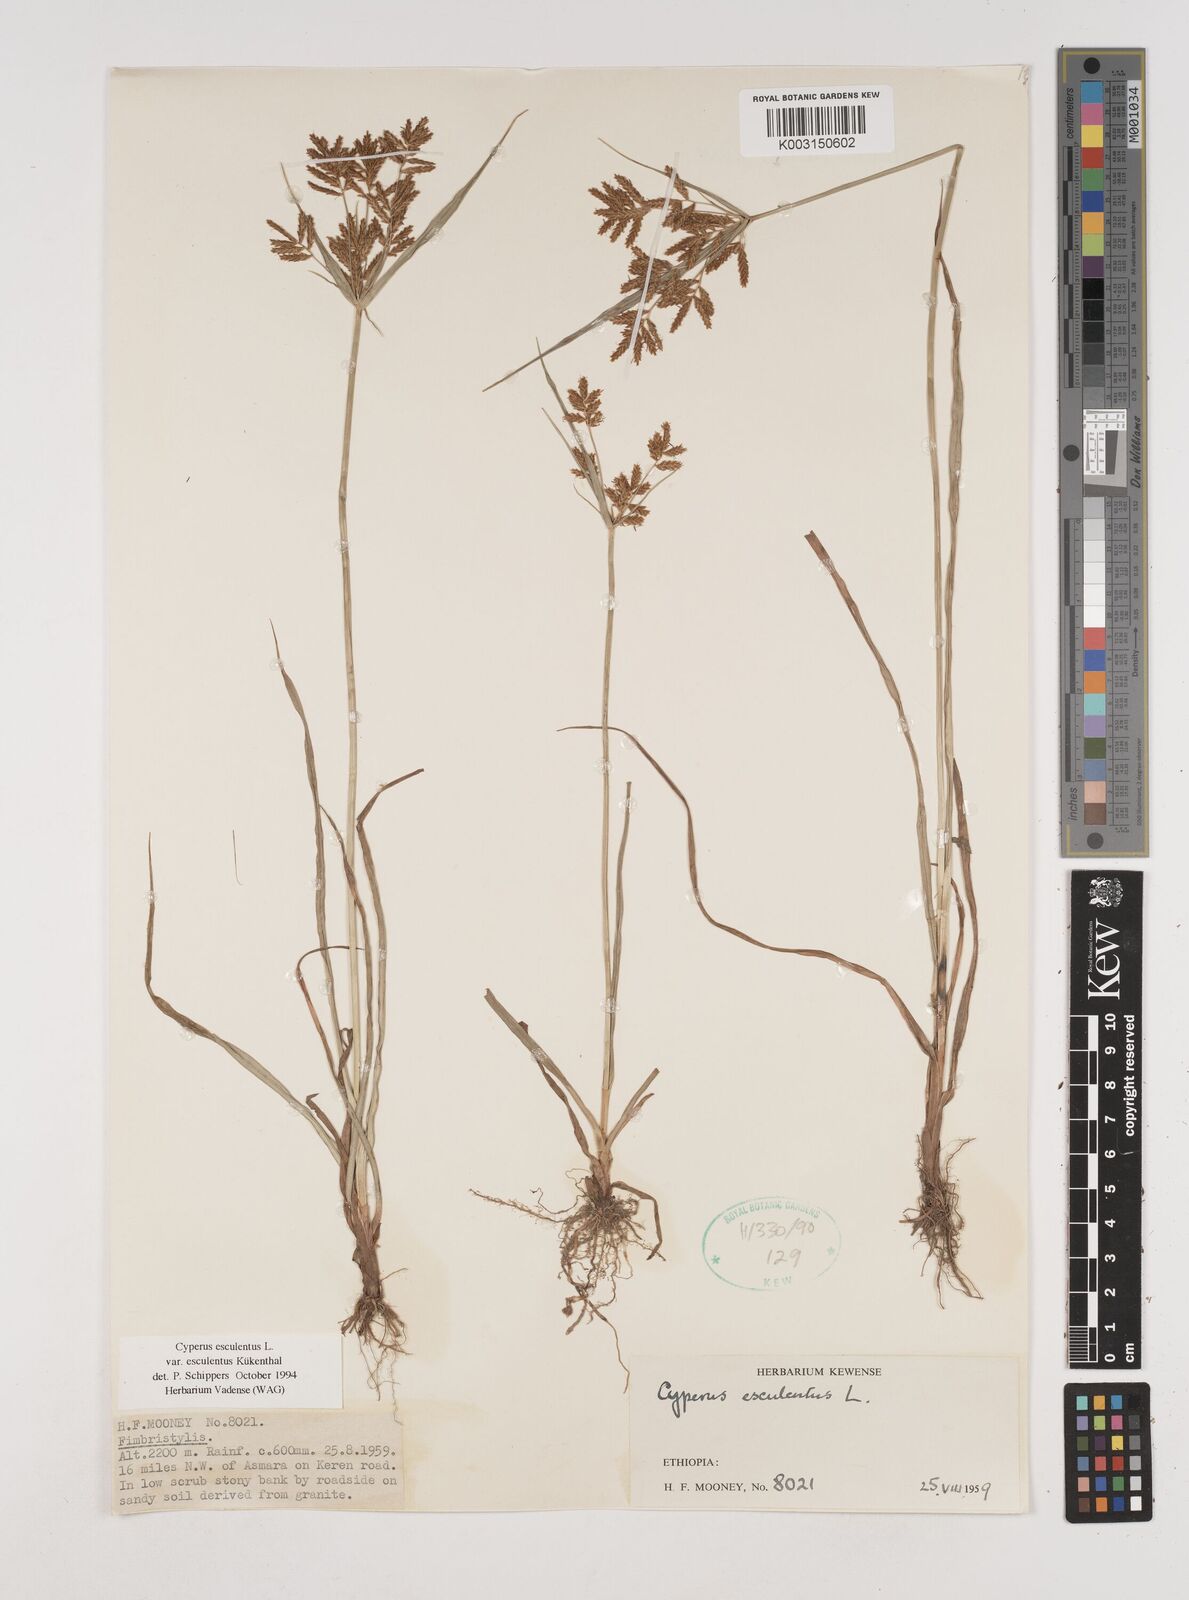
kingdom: Plantae
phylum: Tracheophyta
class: Liliopsida
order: Poales
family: Cyperaceae
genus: Cyperus
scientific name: Cyperus esculentus
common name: Yellow nutsedge
